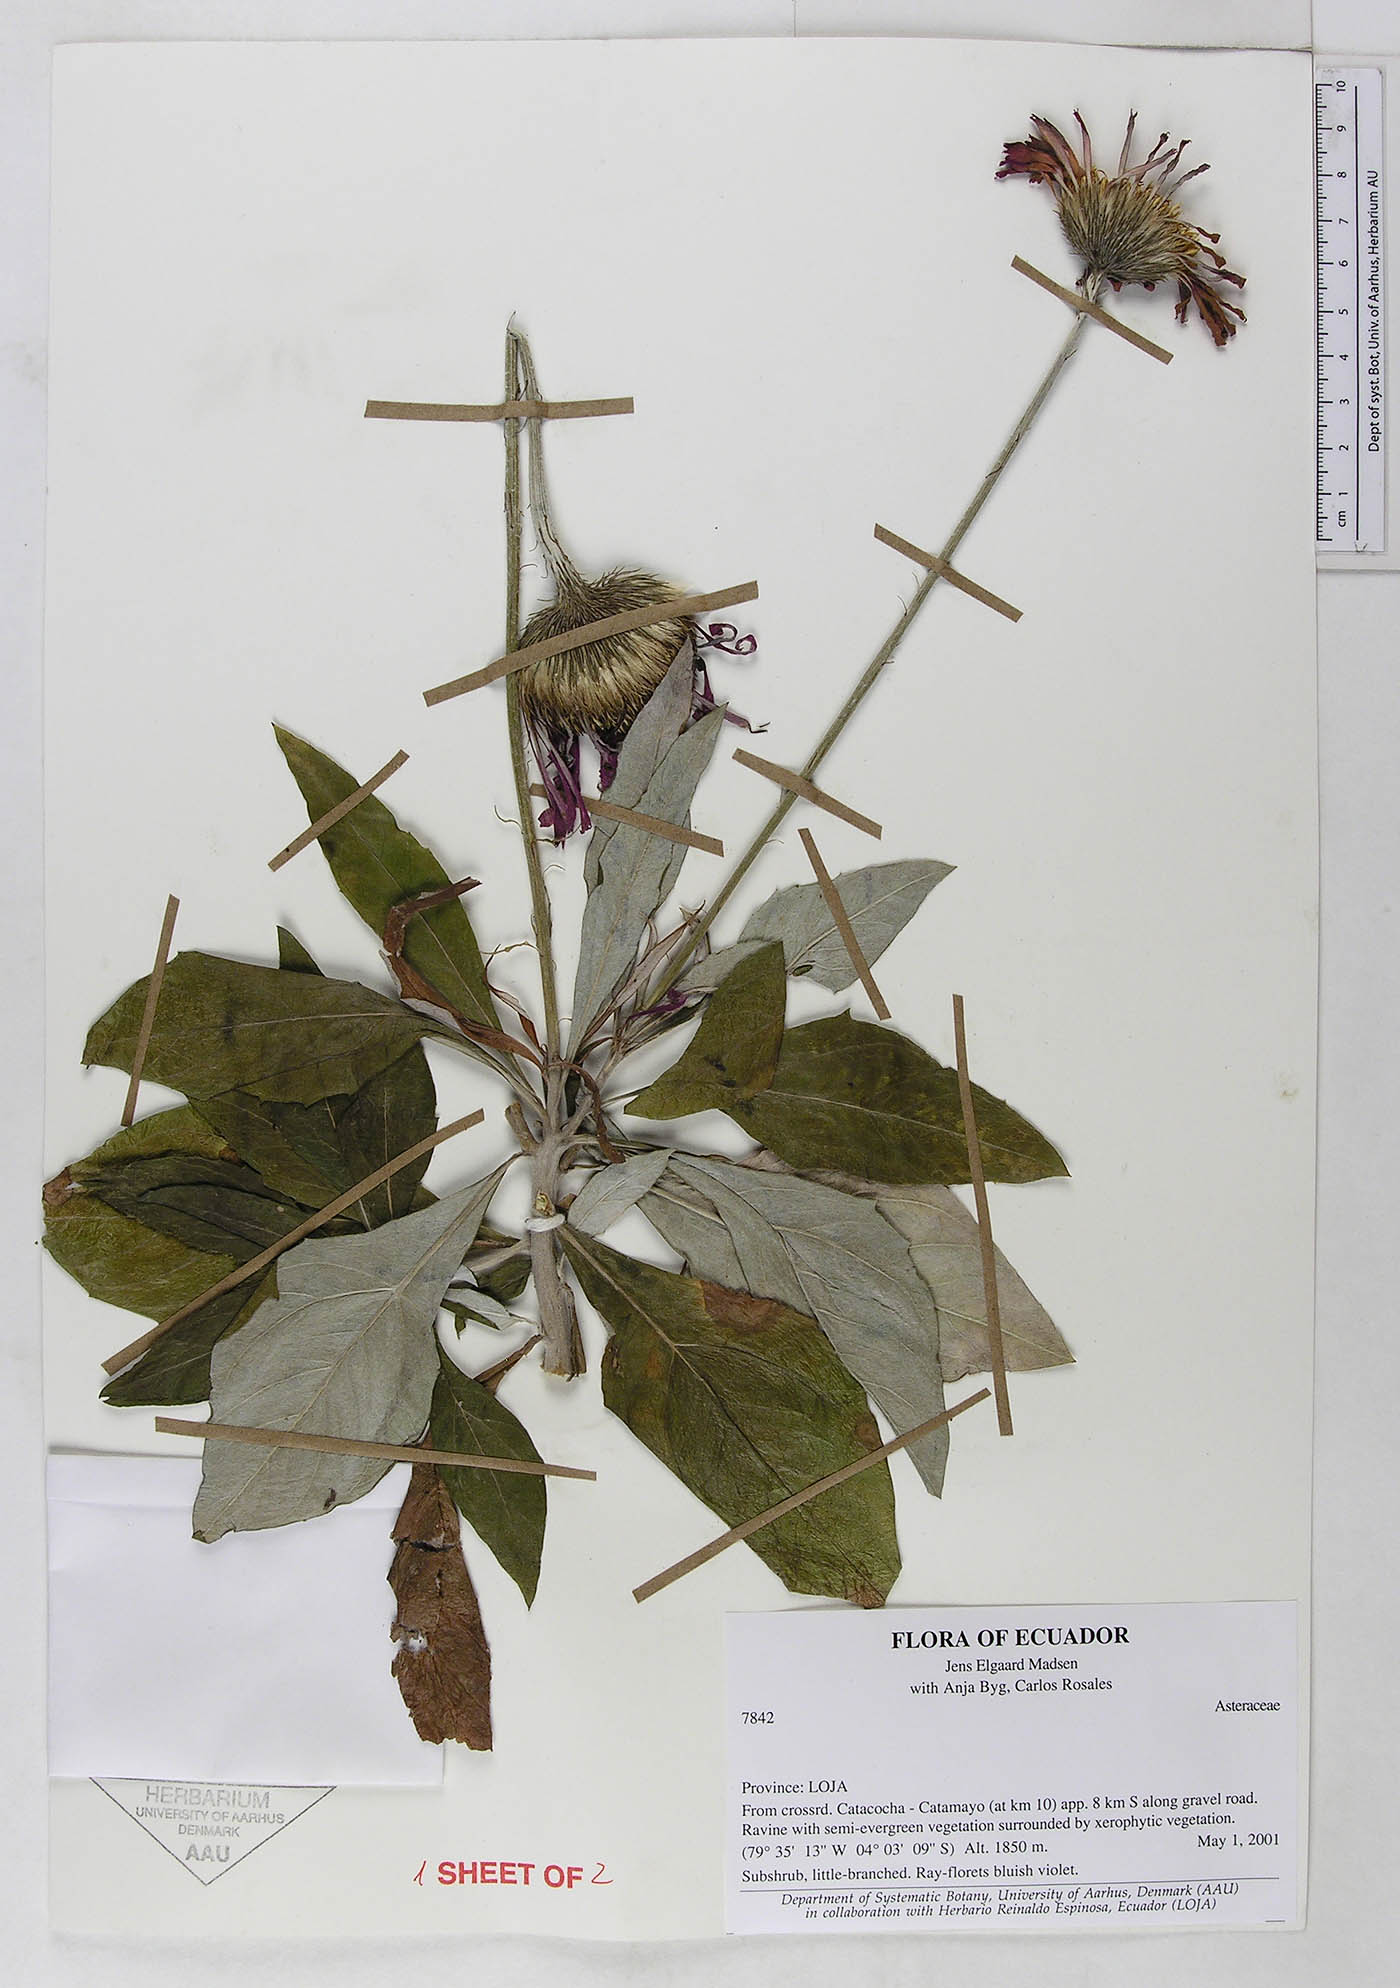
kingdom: Plantae
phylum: Tracheophyta
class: Magnoliopsida
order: Asterales
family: Asteraceae
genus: Onoseris
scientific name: Onoseris salicifolia
